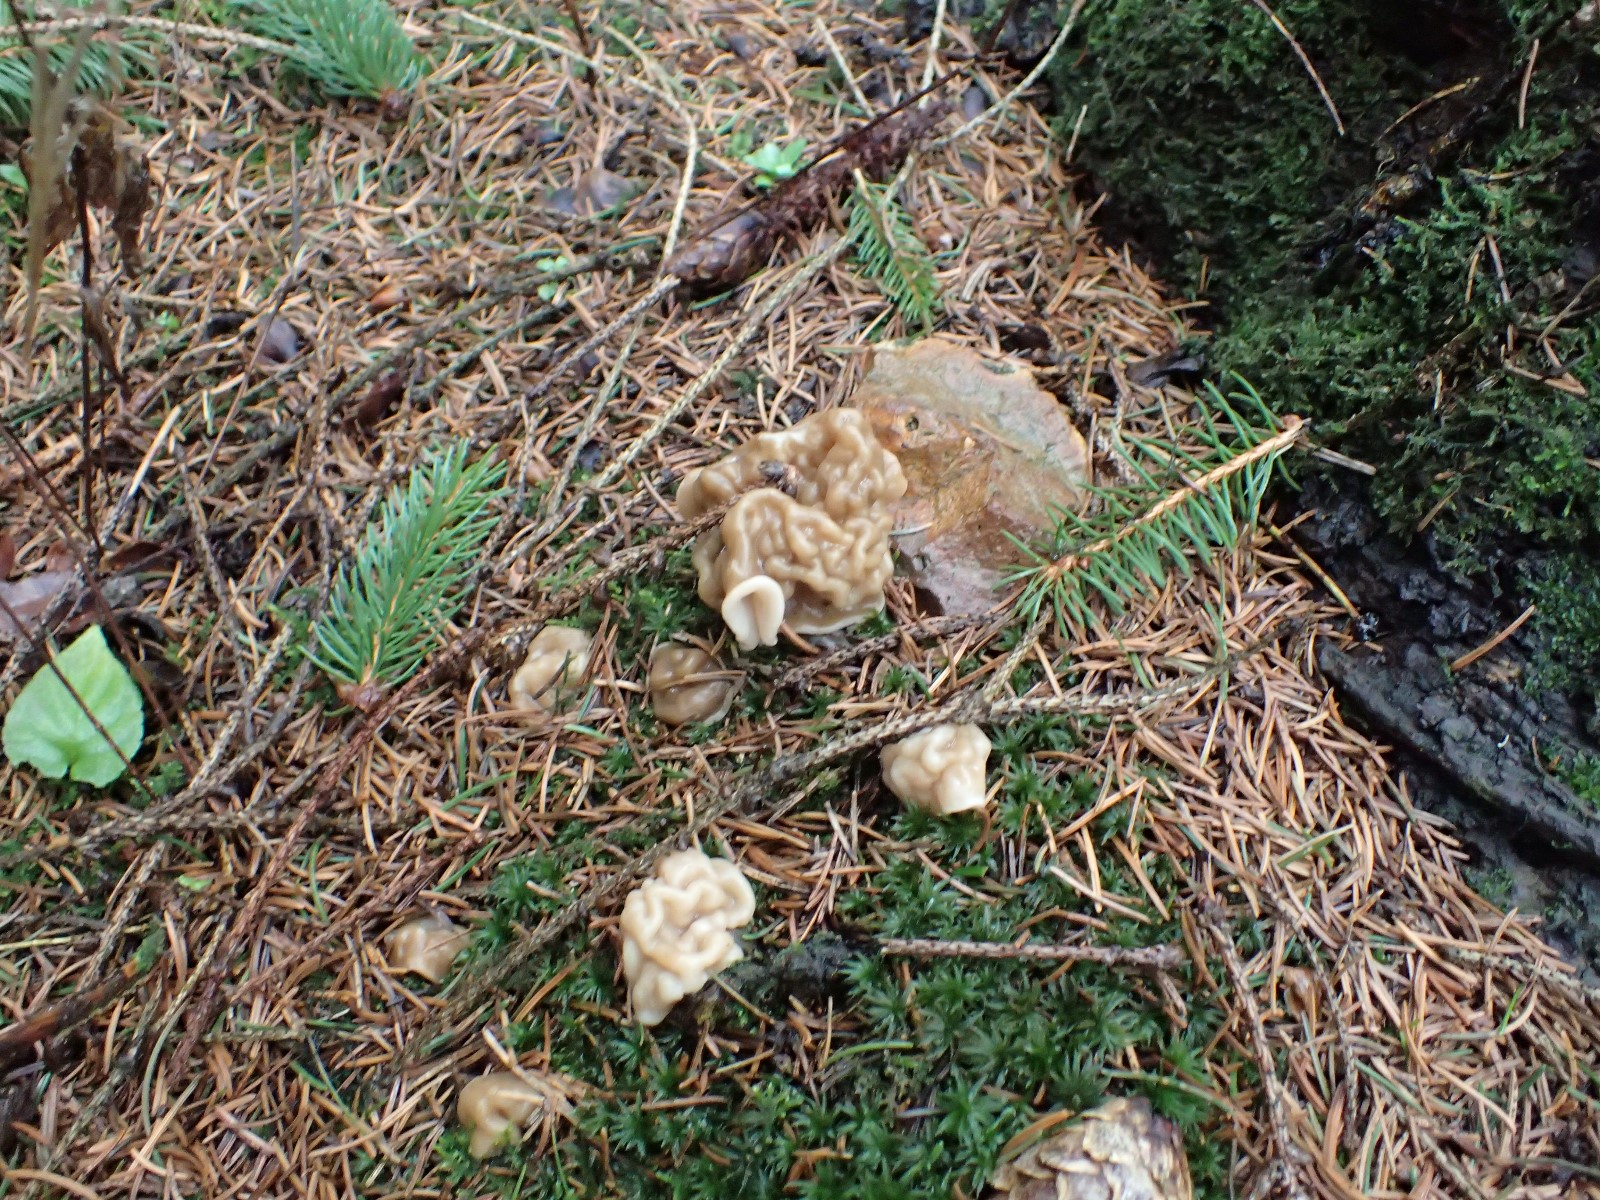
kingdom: Fungi
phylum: Ascomycota
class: Pezizomycetes
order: Pezizales
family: Discinaceae
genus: Gyromitra
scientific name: Gyromitra gigas
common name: kæmpe-stenmorkel
